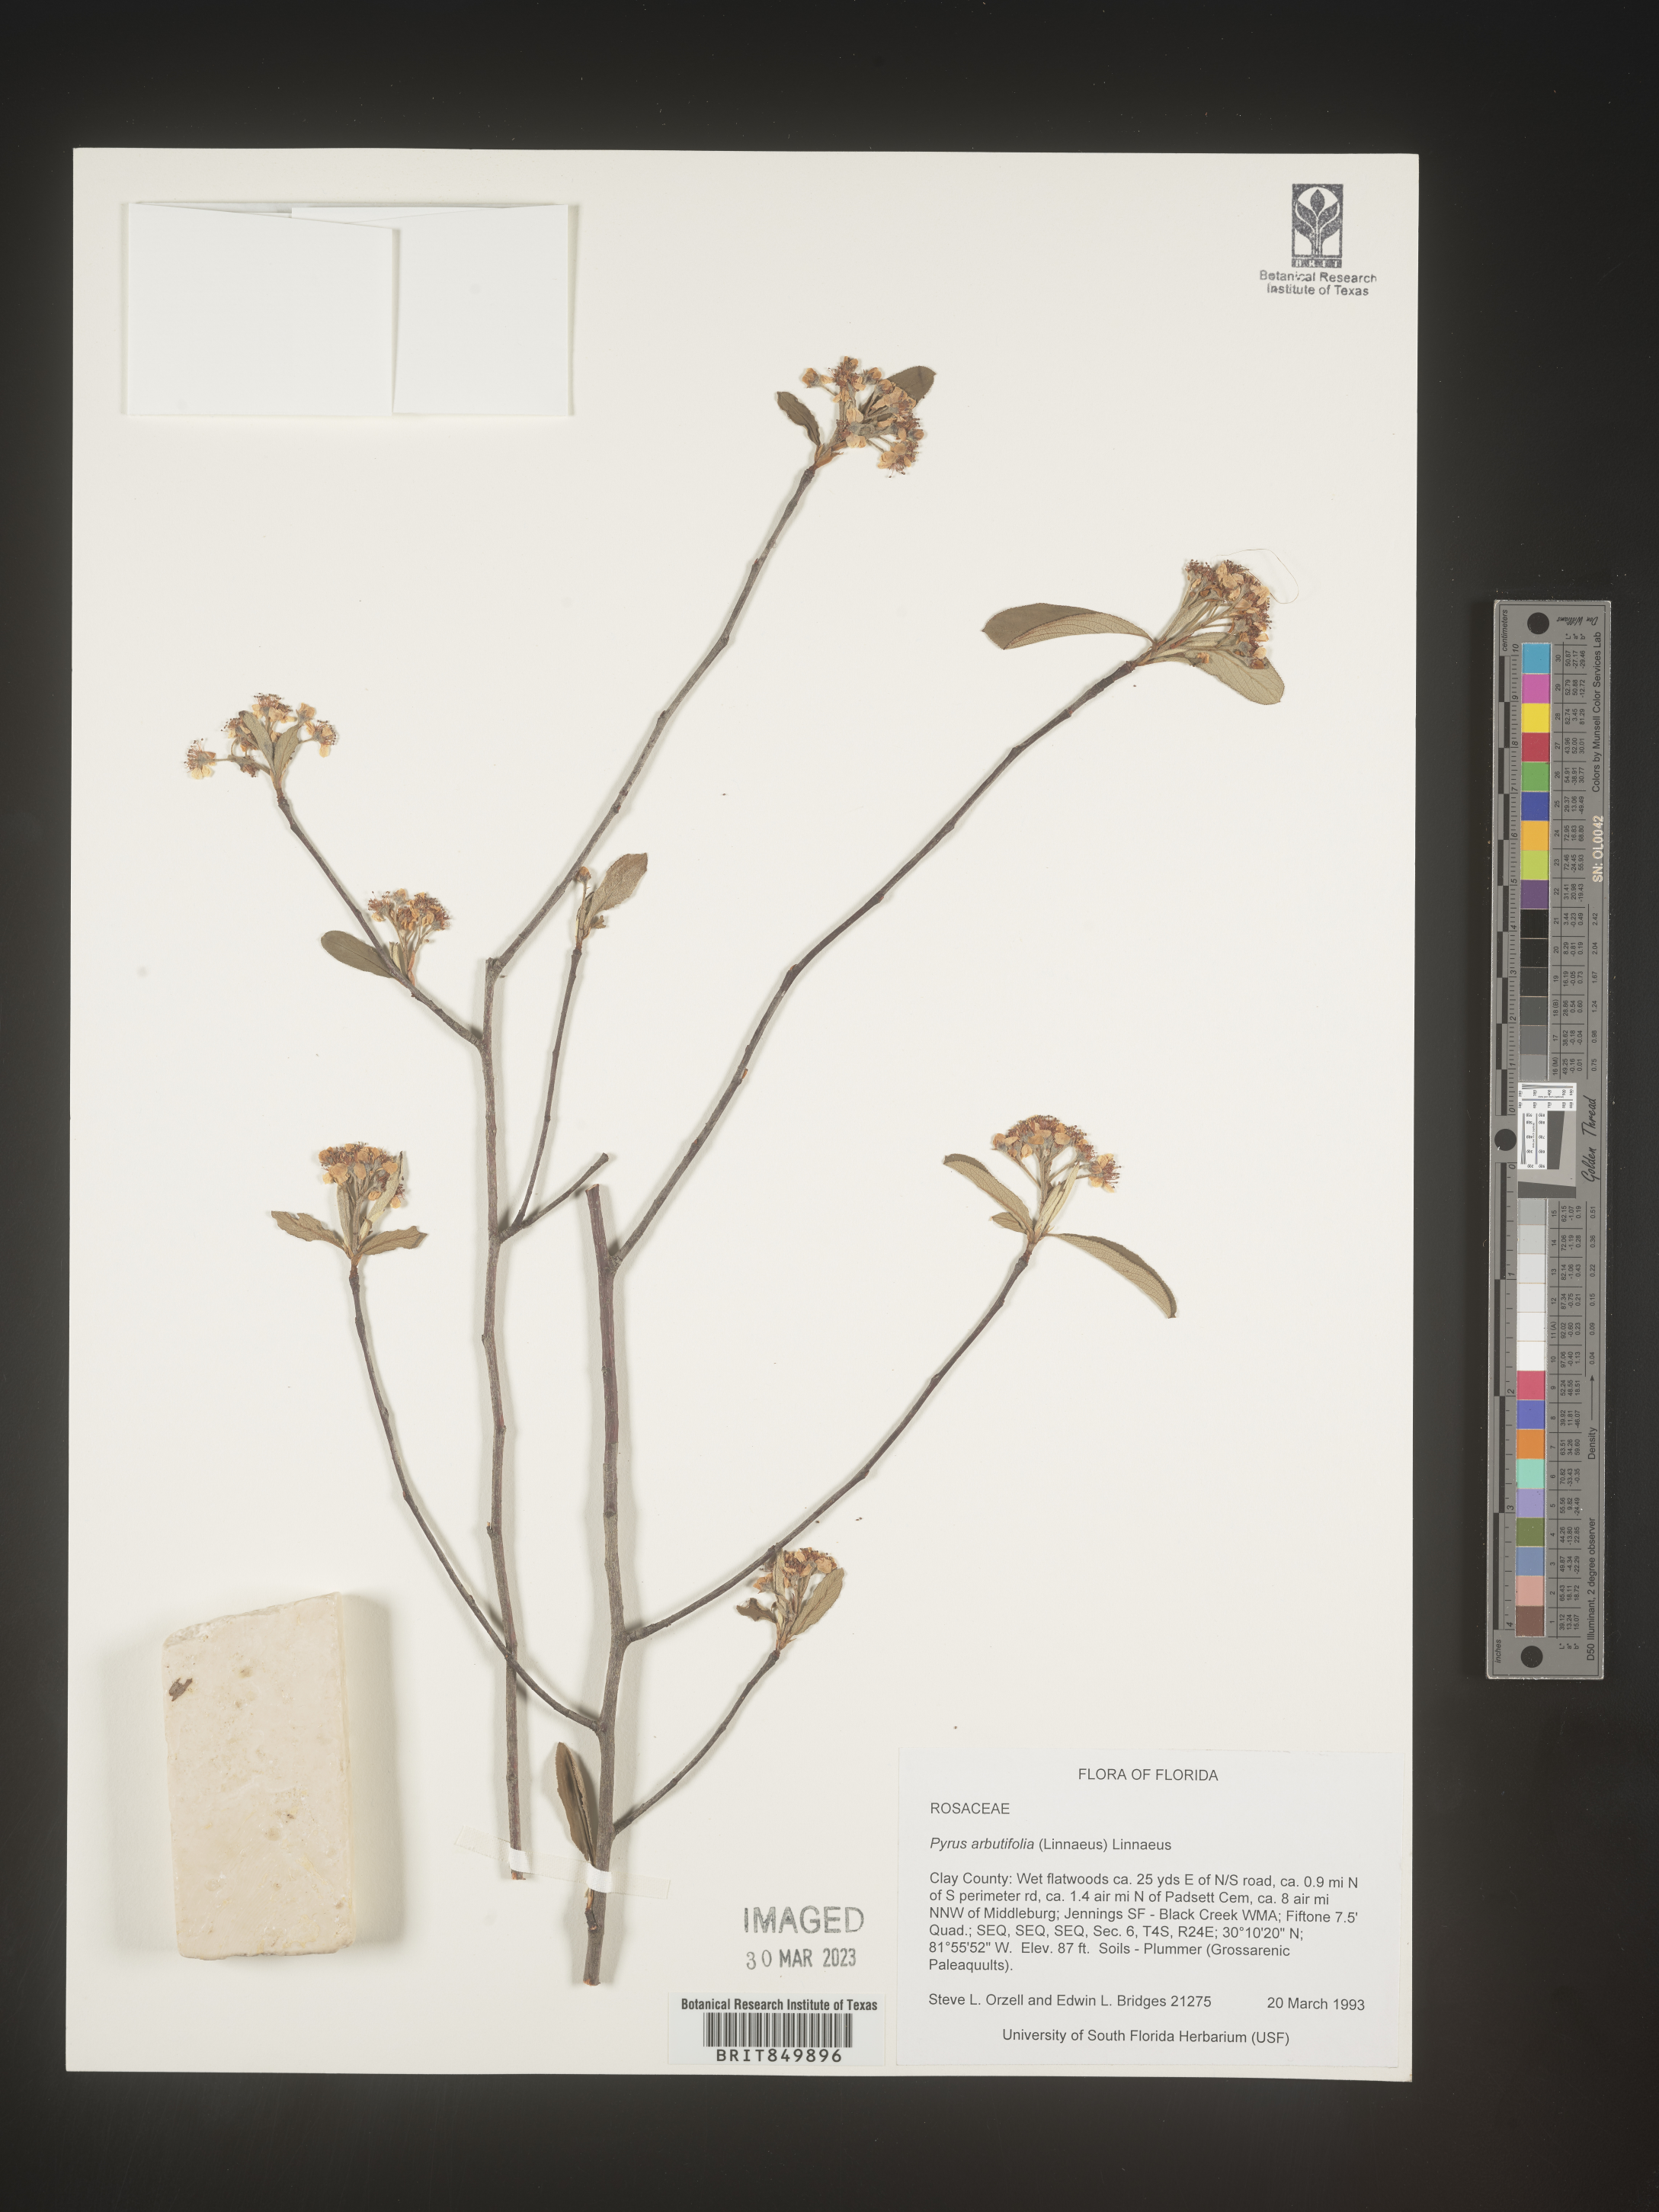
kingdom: Plantae
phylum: Tracheophyta
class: Magnoliopsida
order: Rosales
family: Rosaceae
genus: Pyrus
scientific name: Pyrus
